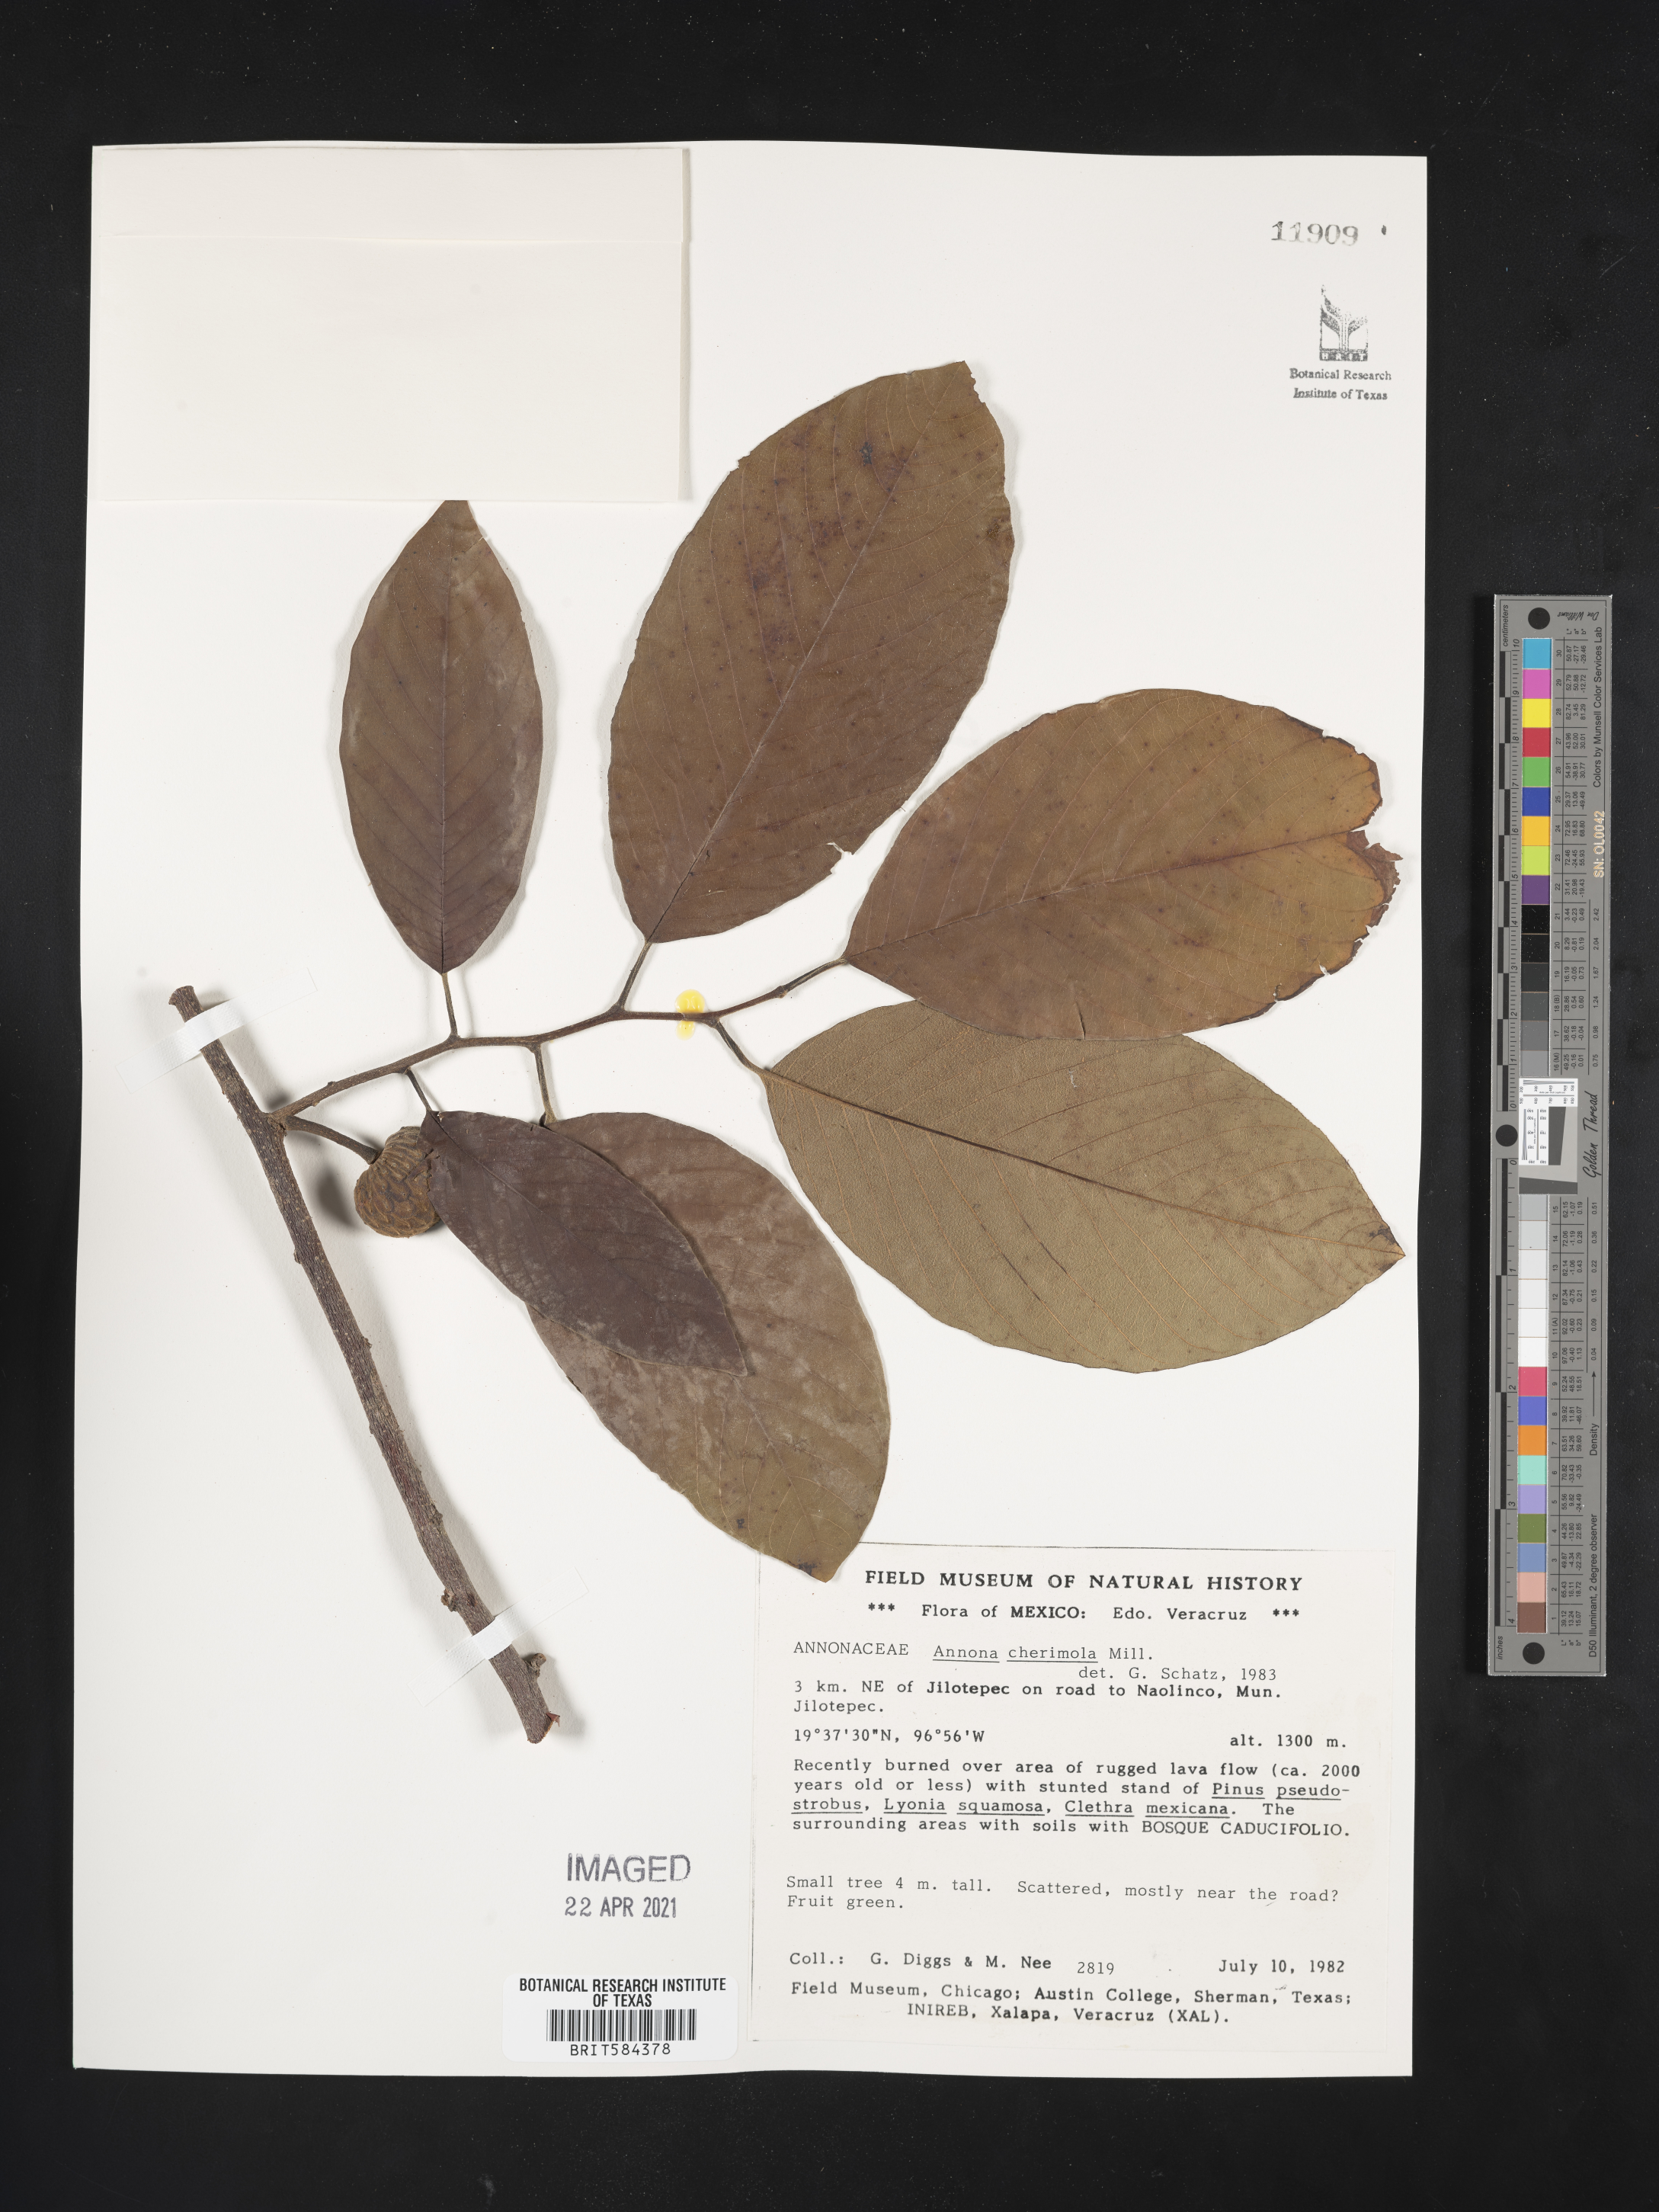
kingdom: Plantae
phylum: Tracheophyta
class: Magnoliopsida
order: Magnoliales
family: Annonaceae
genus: Annona
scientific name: Annona cherimola
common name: Cherimoya
